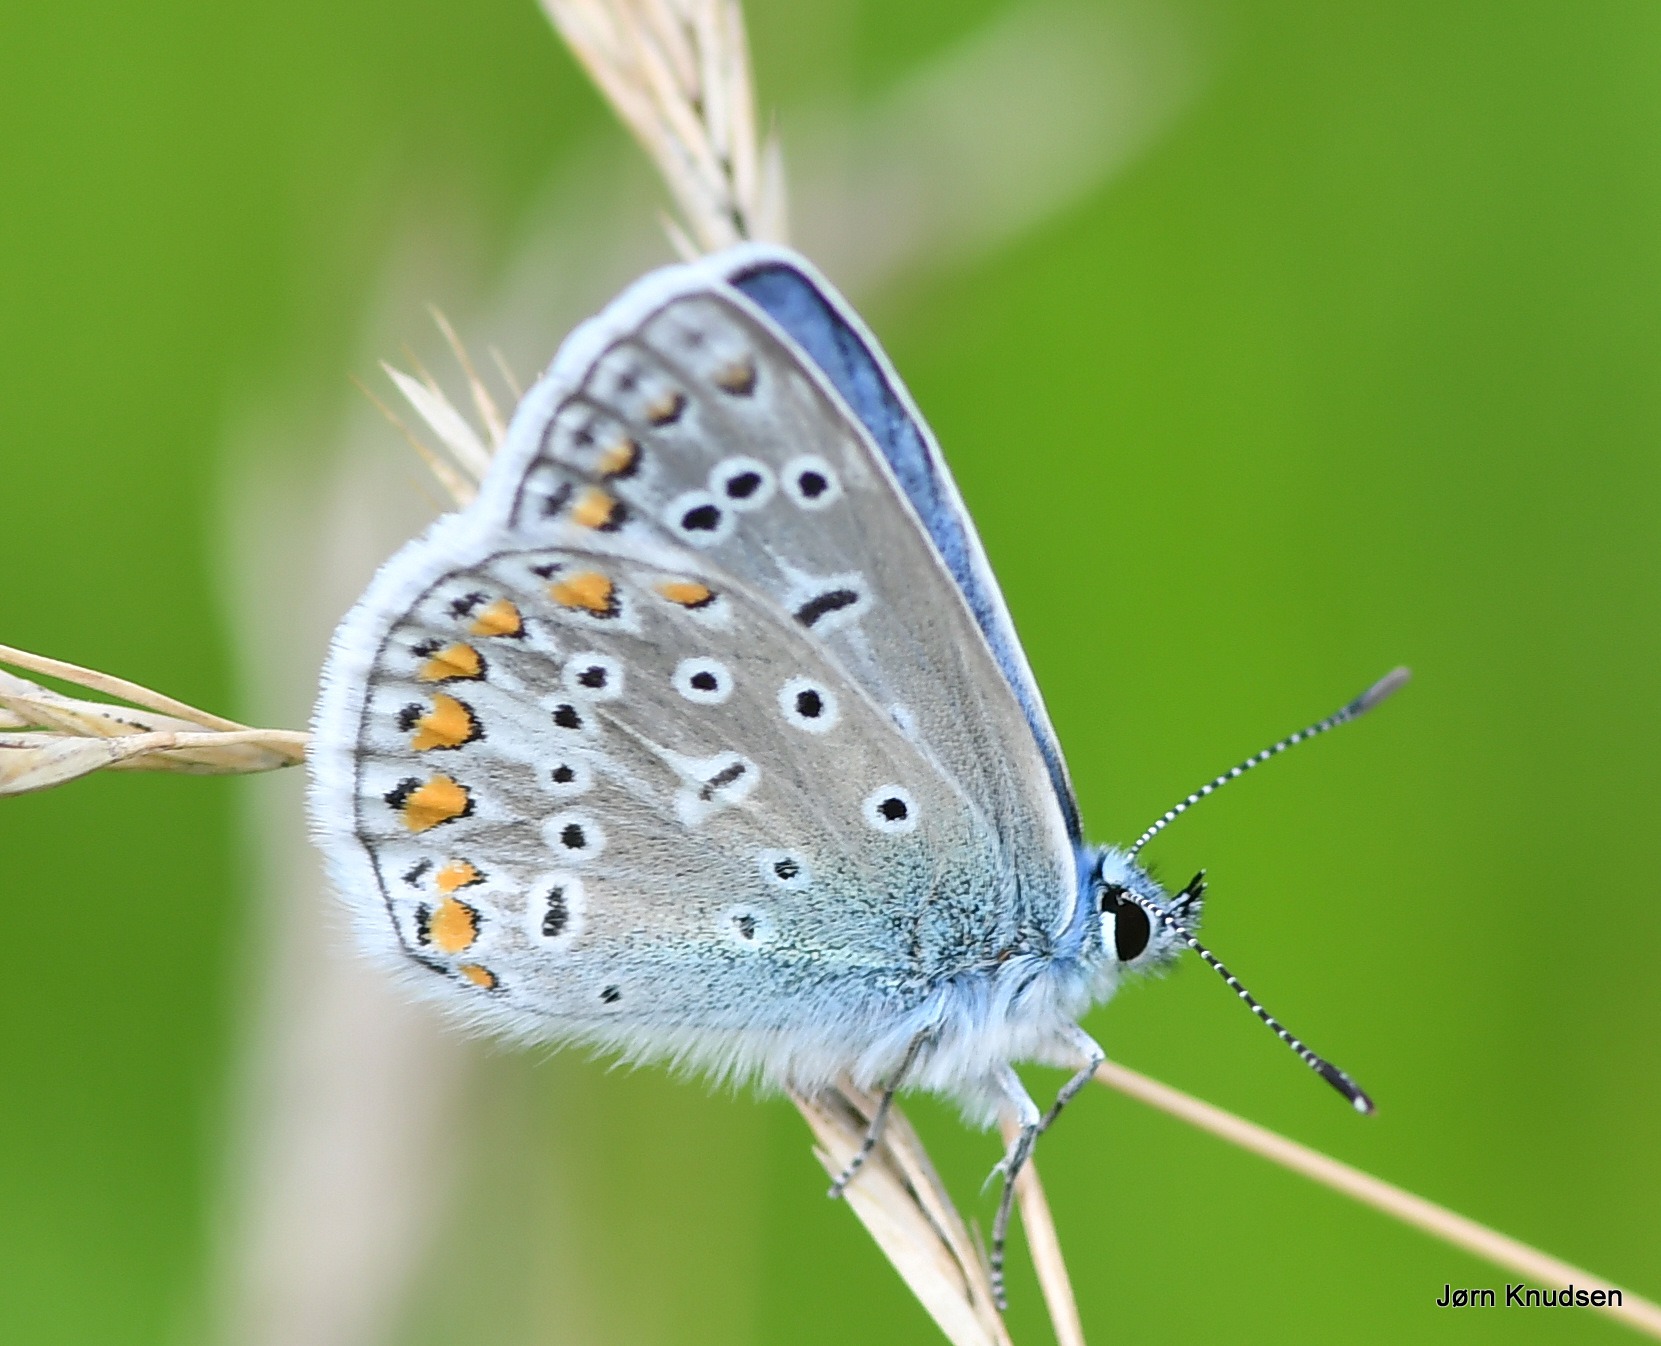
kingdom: Animalia
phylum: Arthropoda
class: Insecta
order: Lepidoptera
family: Lycaenidae
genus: Polyommatus
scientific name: Polyommatus icarus
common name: Almindelig blåfugl
